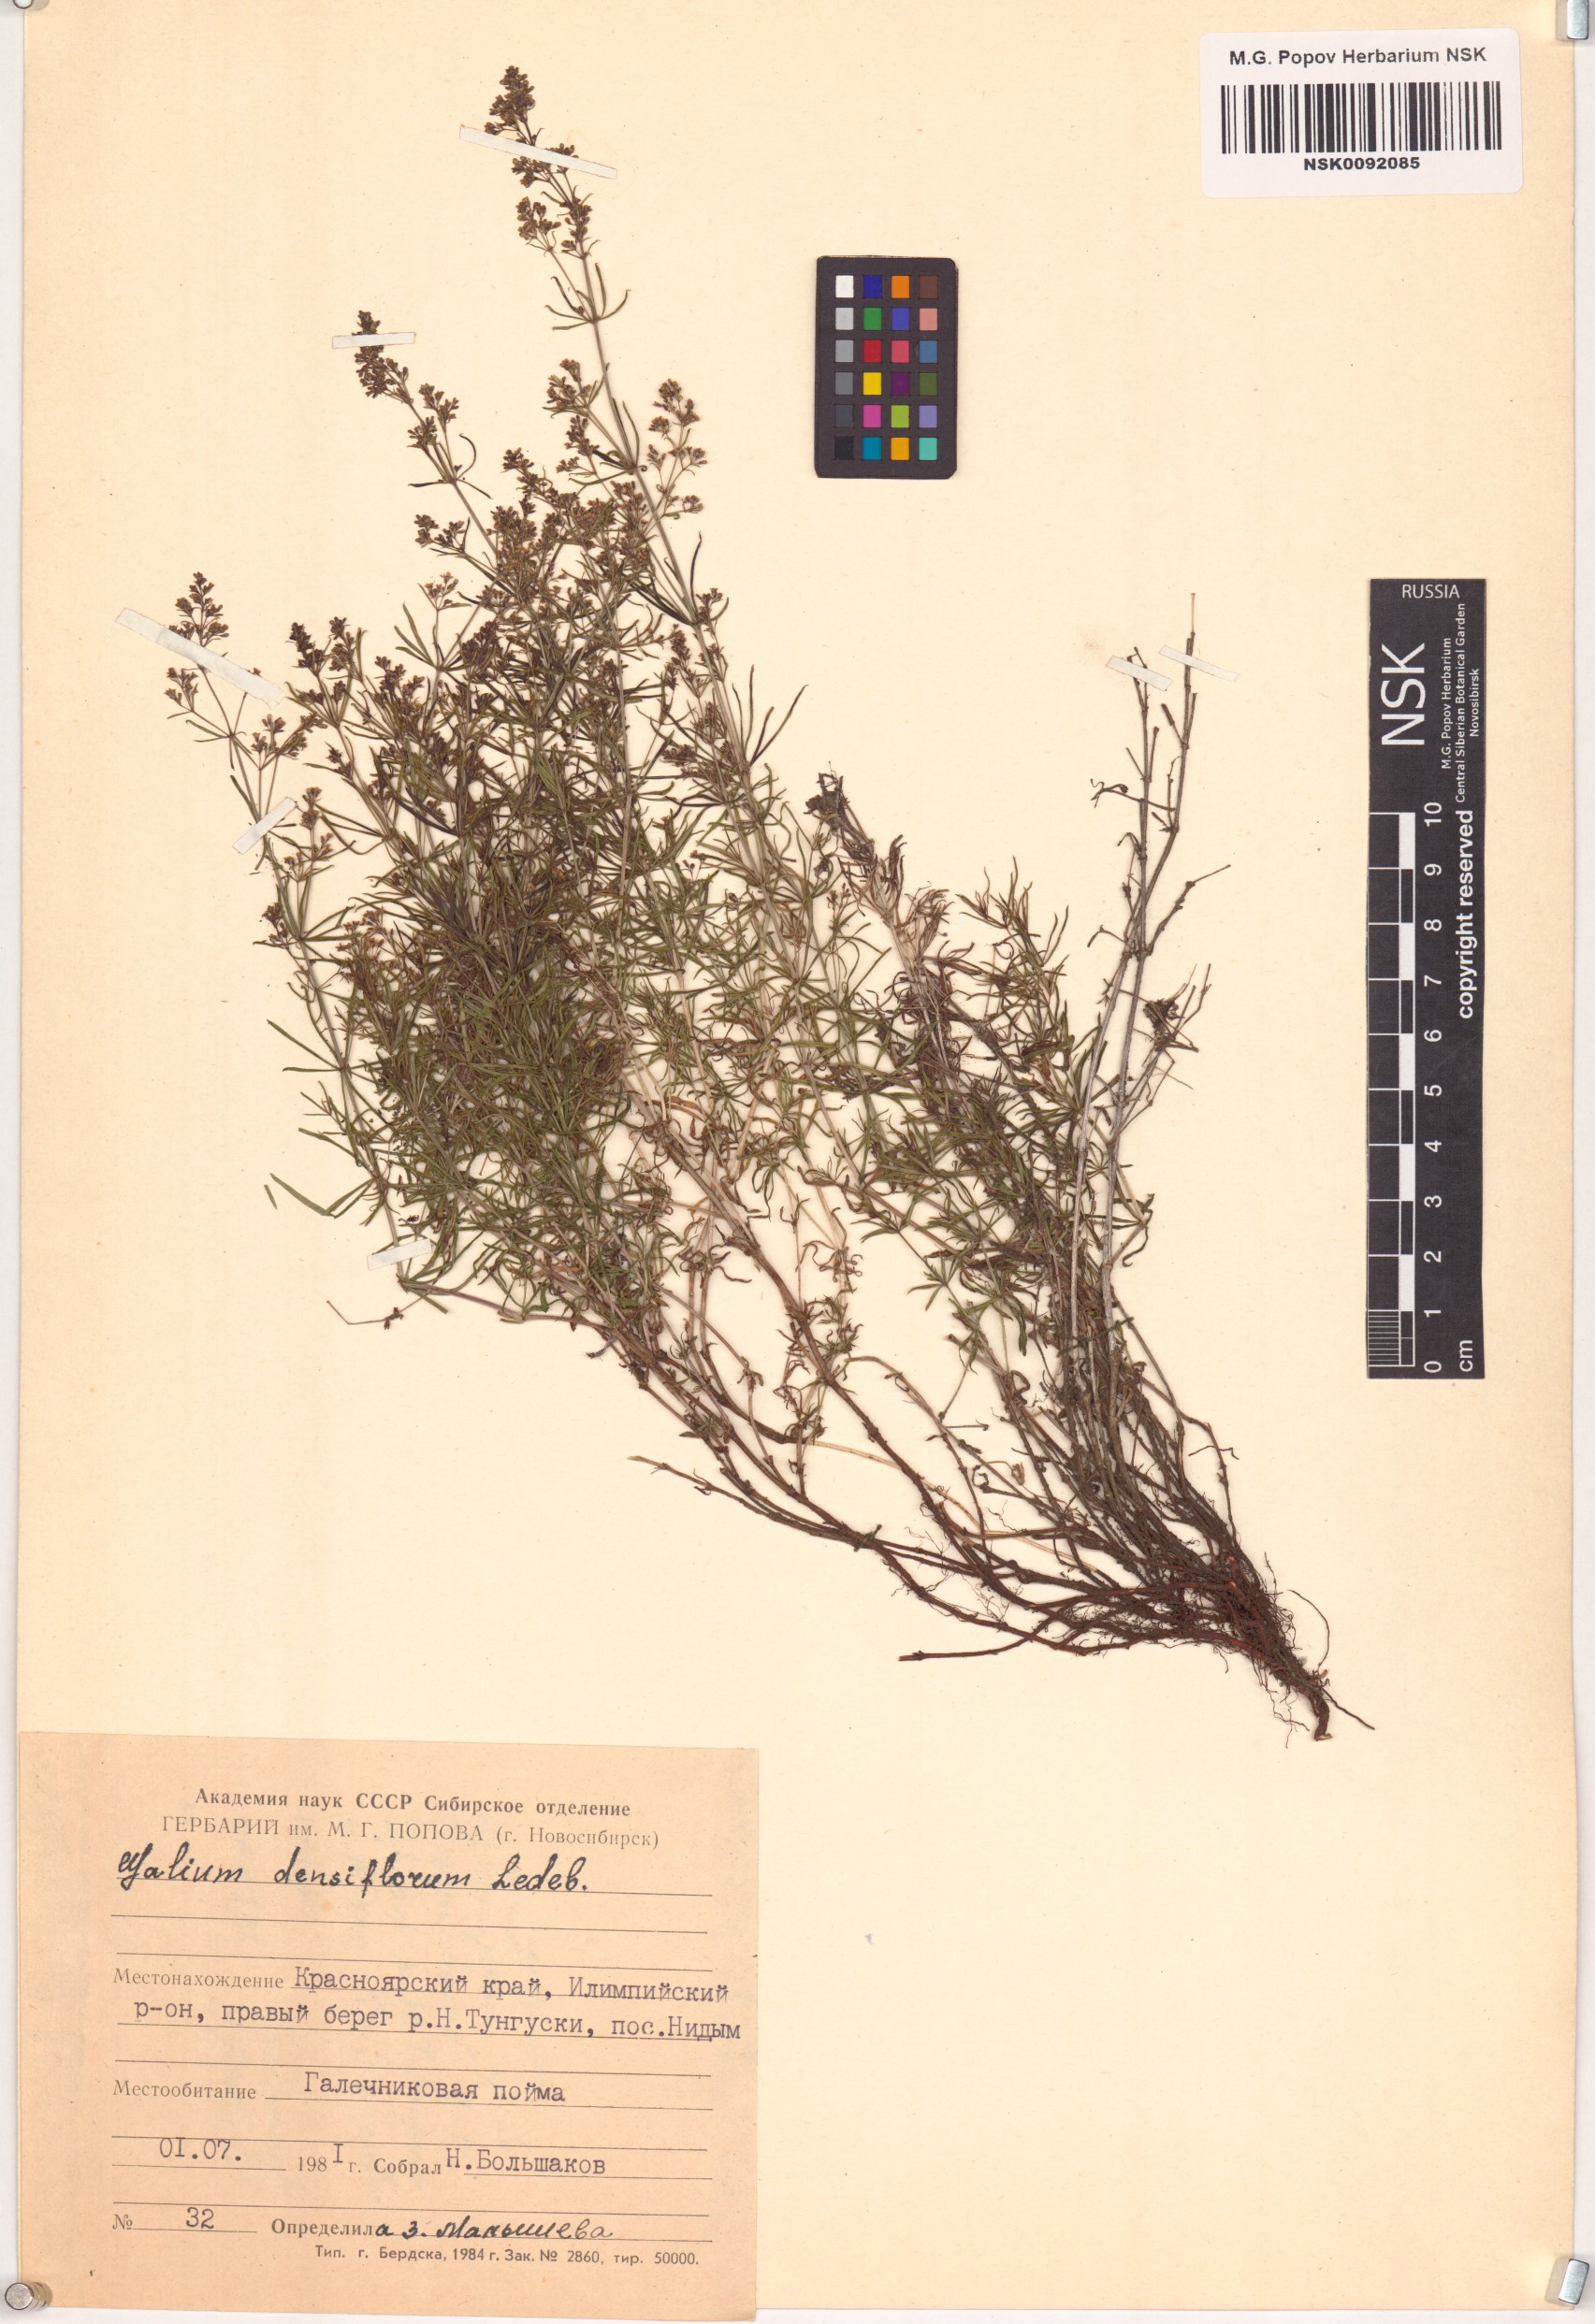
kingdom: Plantae
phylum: Tracheophyta
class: Magnoliopsida
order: Gentianales
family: Rubiaceae
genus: Galium
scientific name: Galium densiflorum
